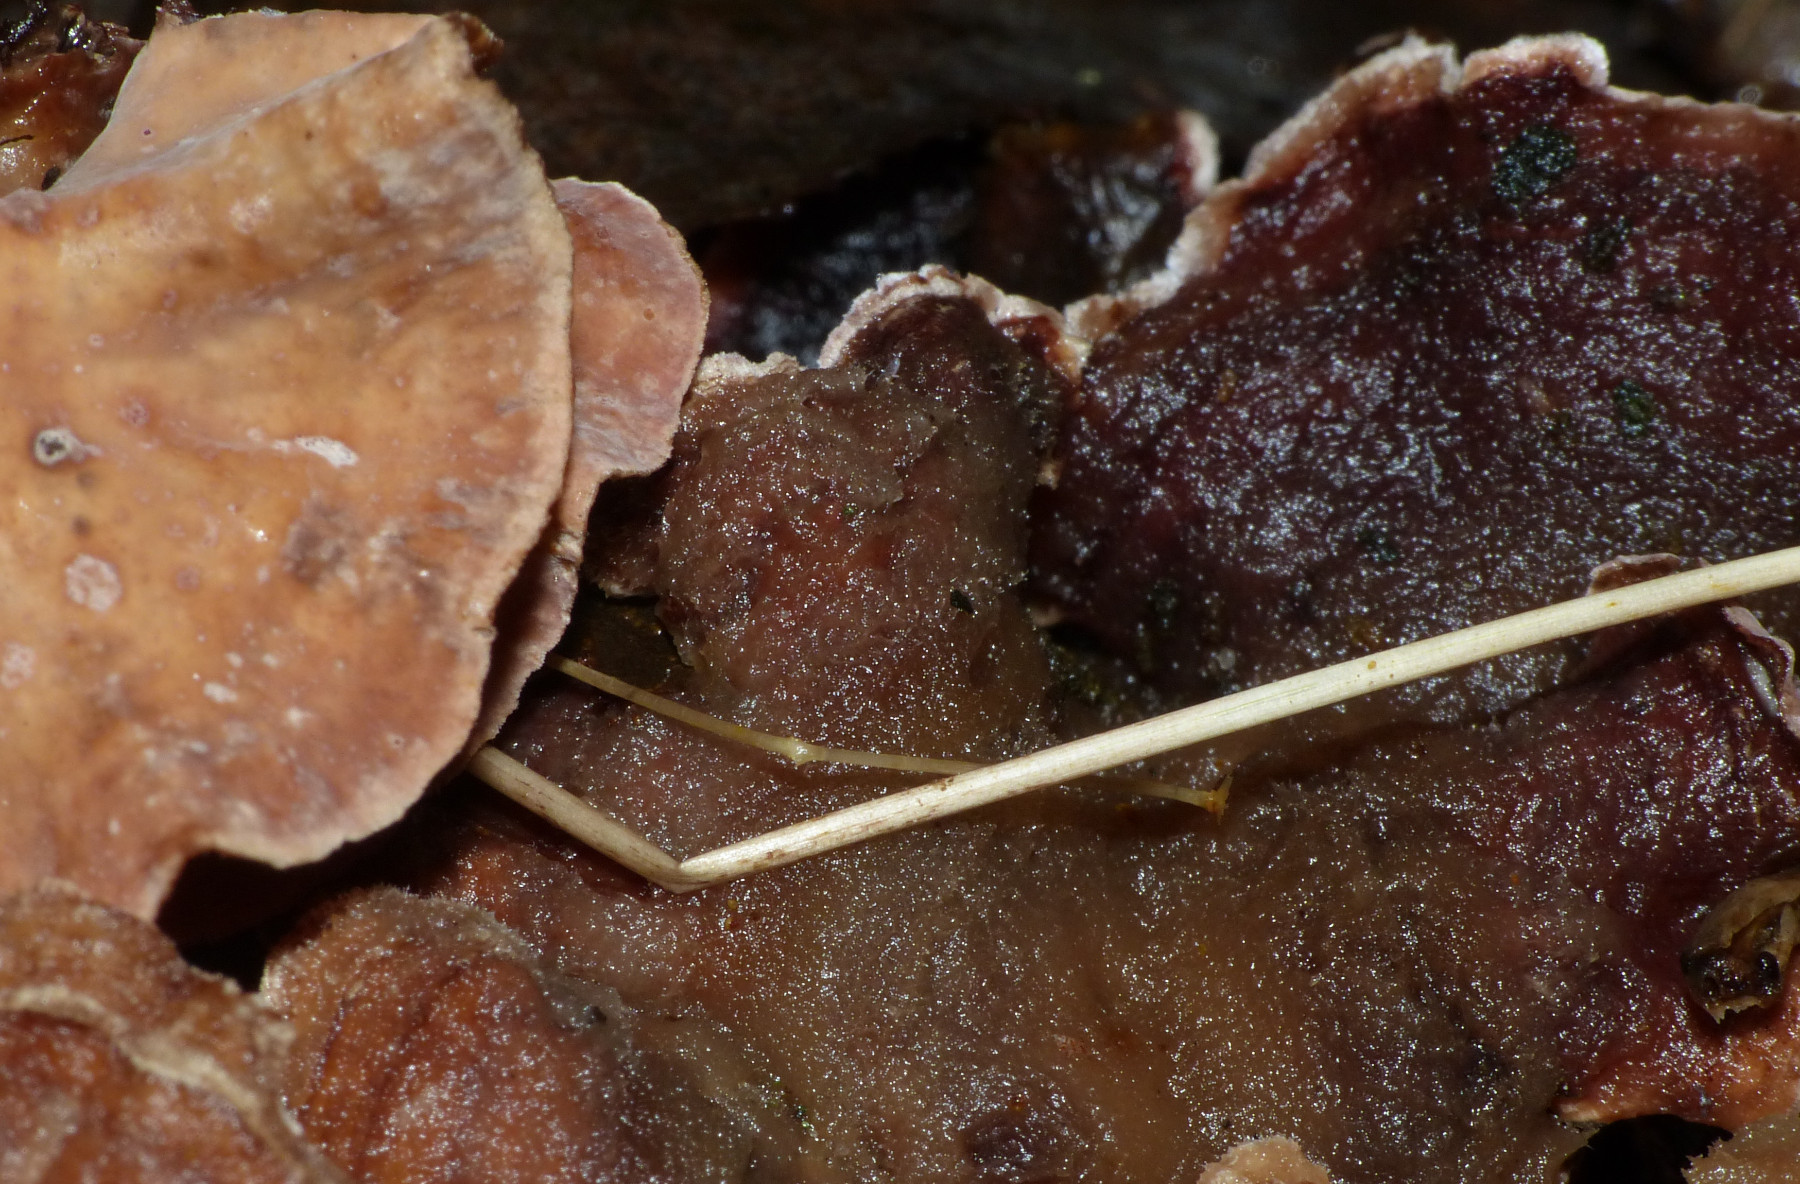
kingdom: Fungi
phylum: Basidiomycota
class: Agaricomycetes
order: Russulales
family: Hericiaceae
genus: Laxitextum
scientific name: Laxitextum bicolor
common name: tvefarvet filtskind
